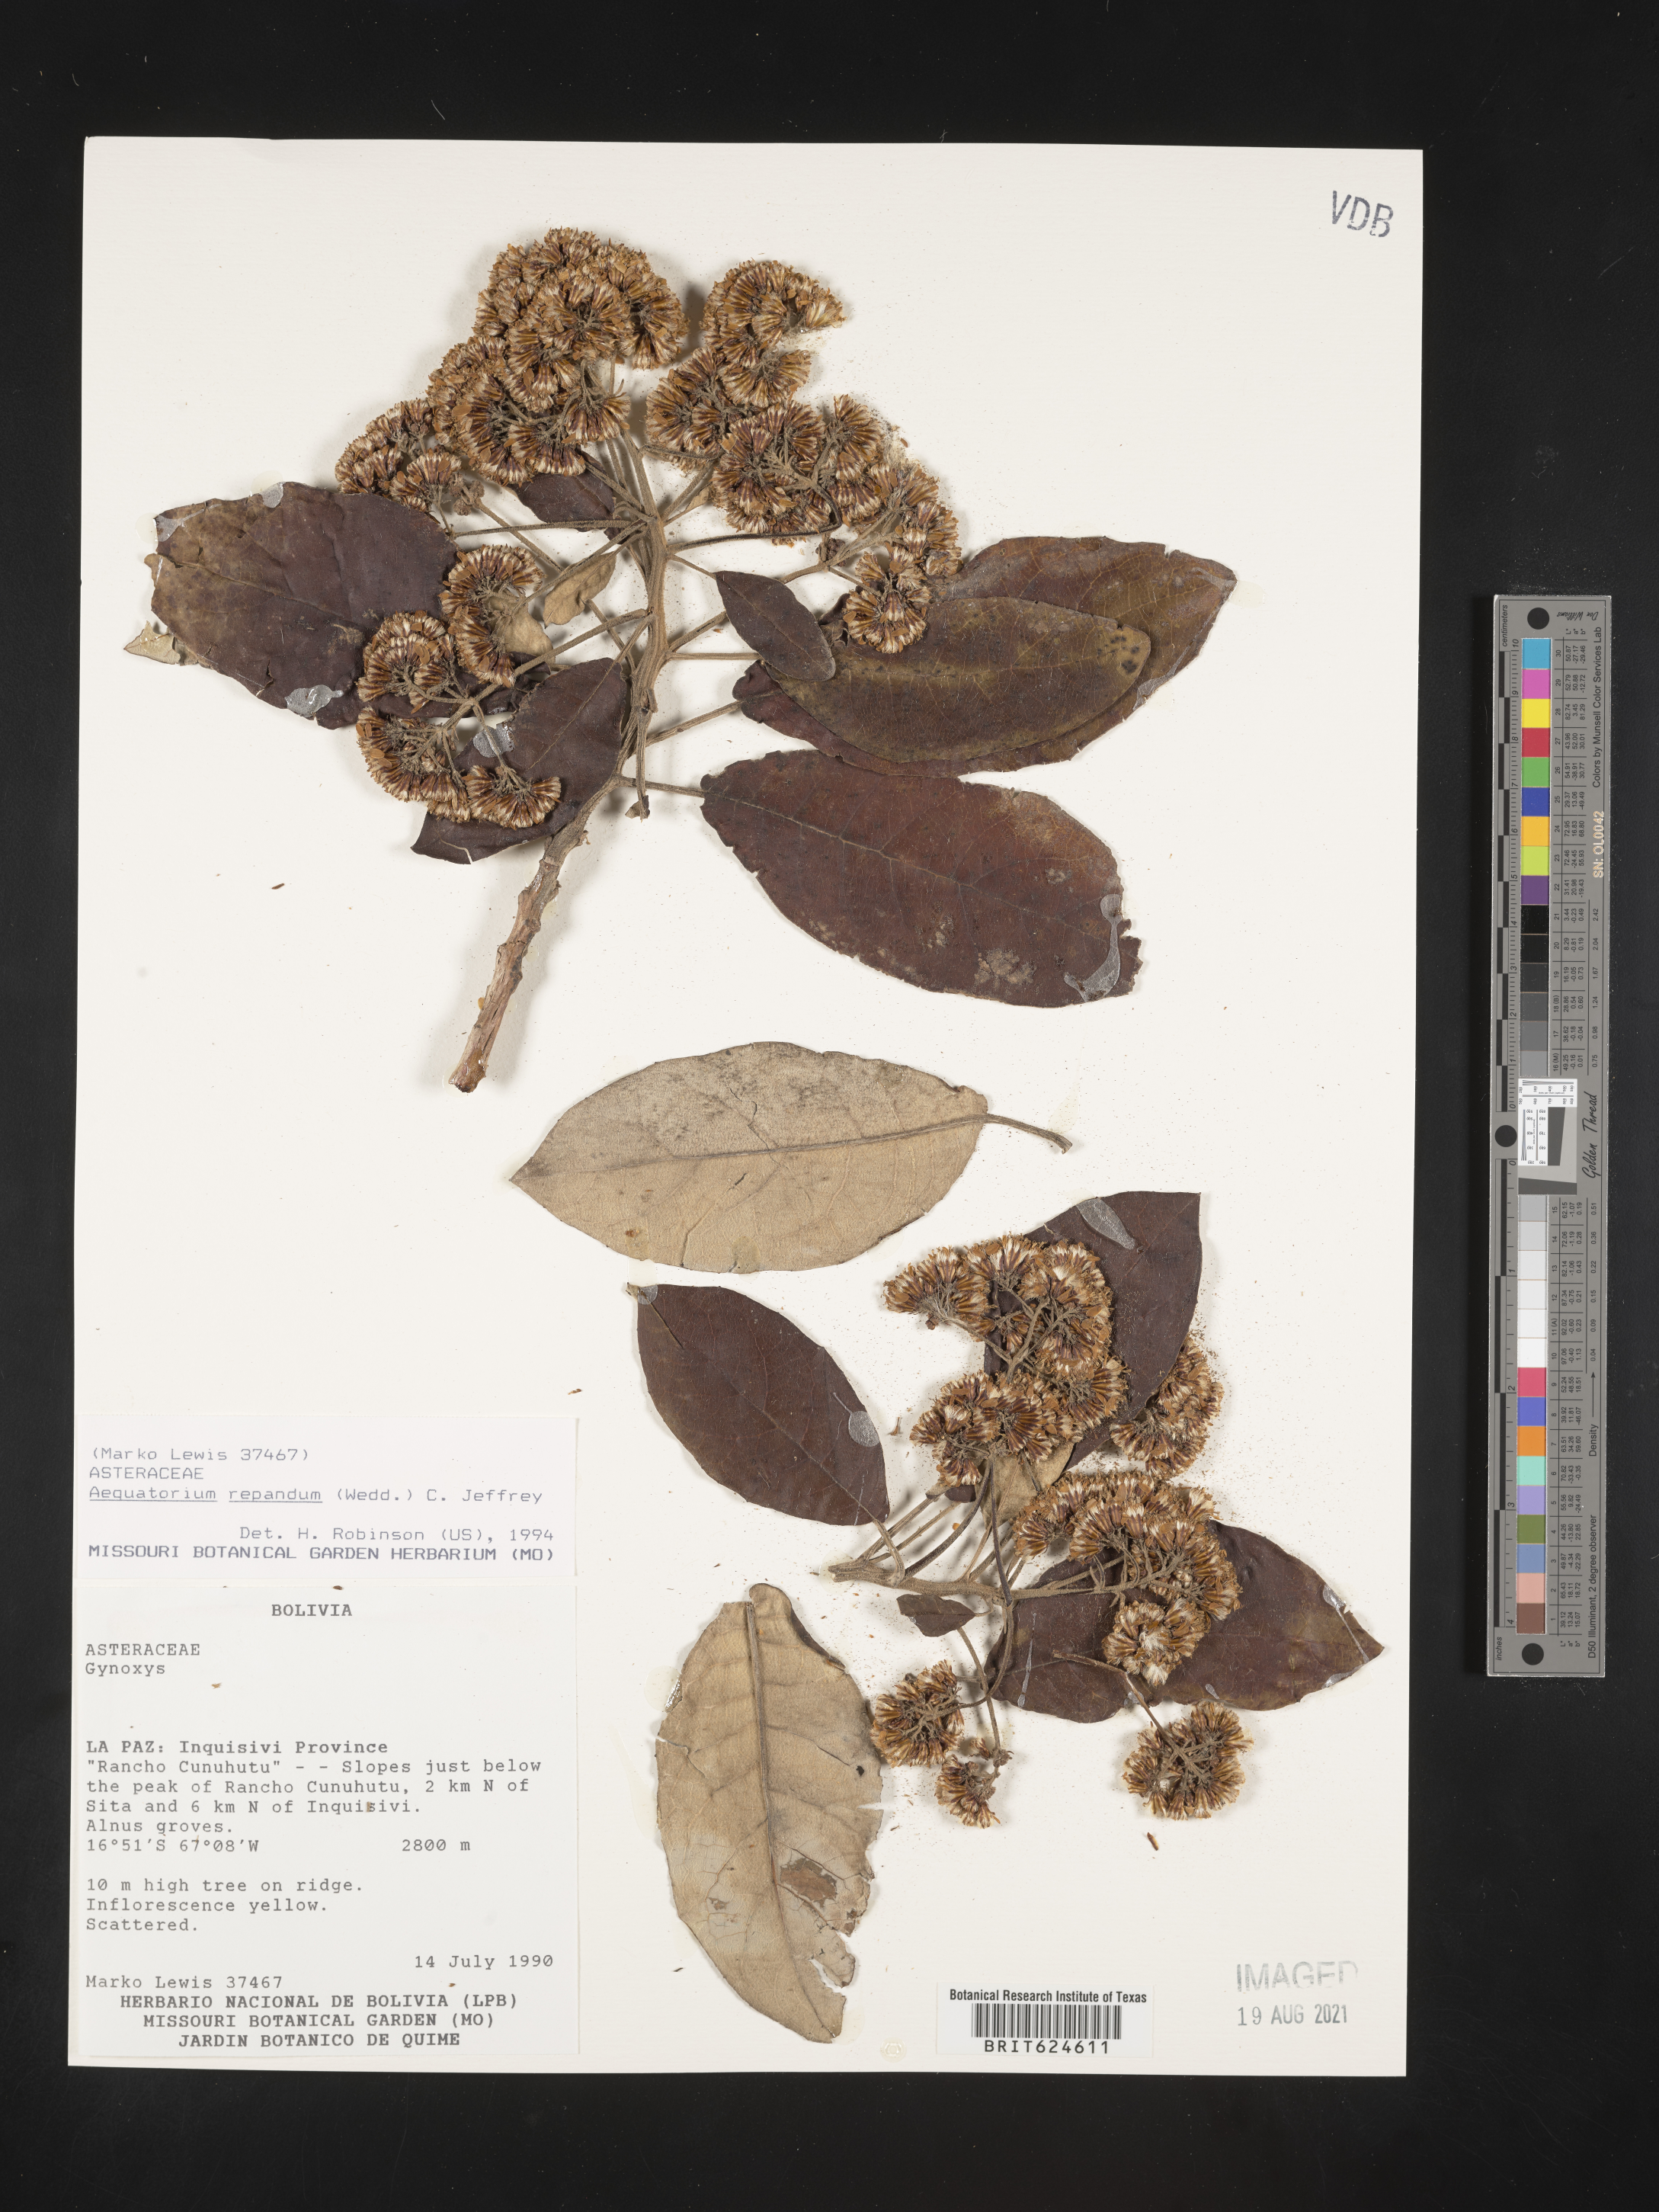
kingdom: Plantae
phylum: Tracheophyta
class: Magnoliopsida
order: Asterales
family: Asteraceae
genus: Nordenstamia
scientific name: Nordenstamia repanda
